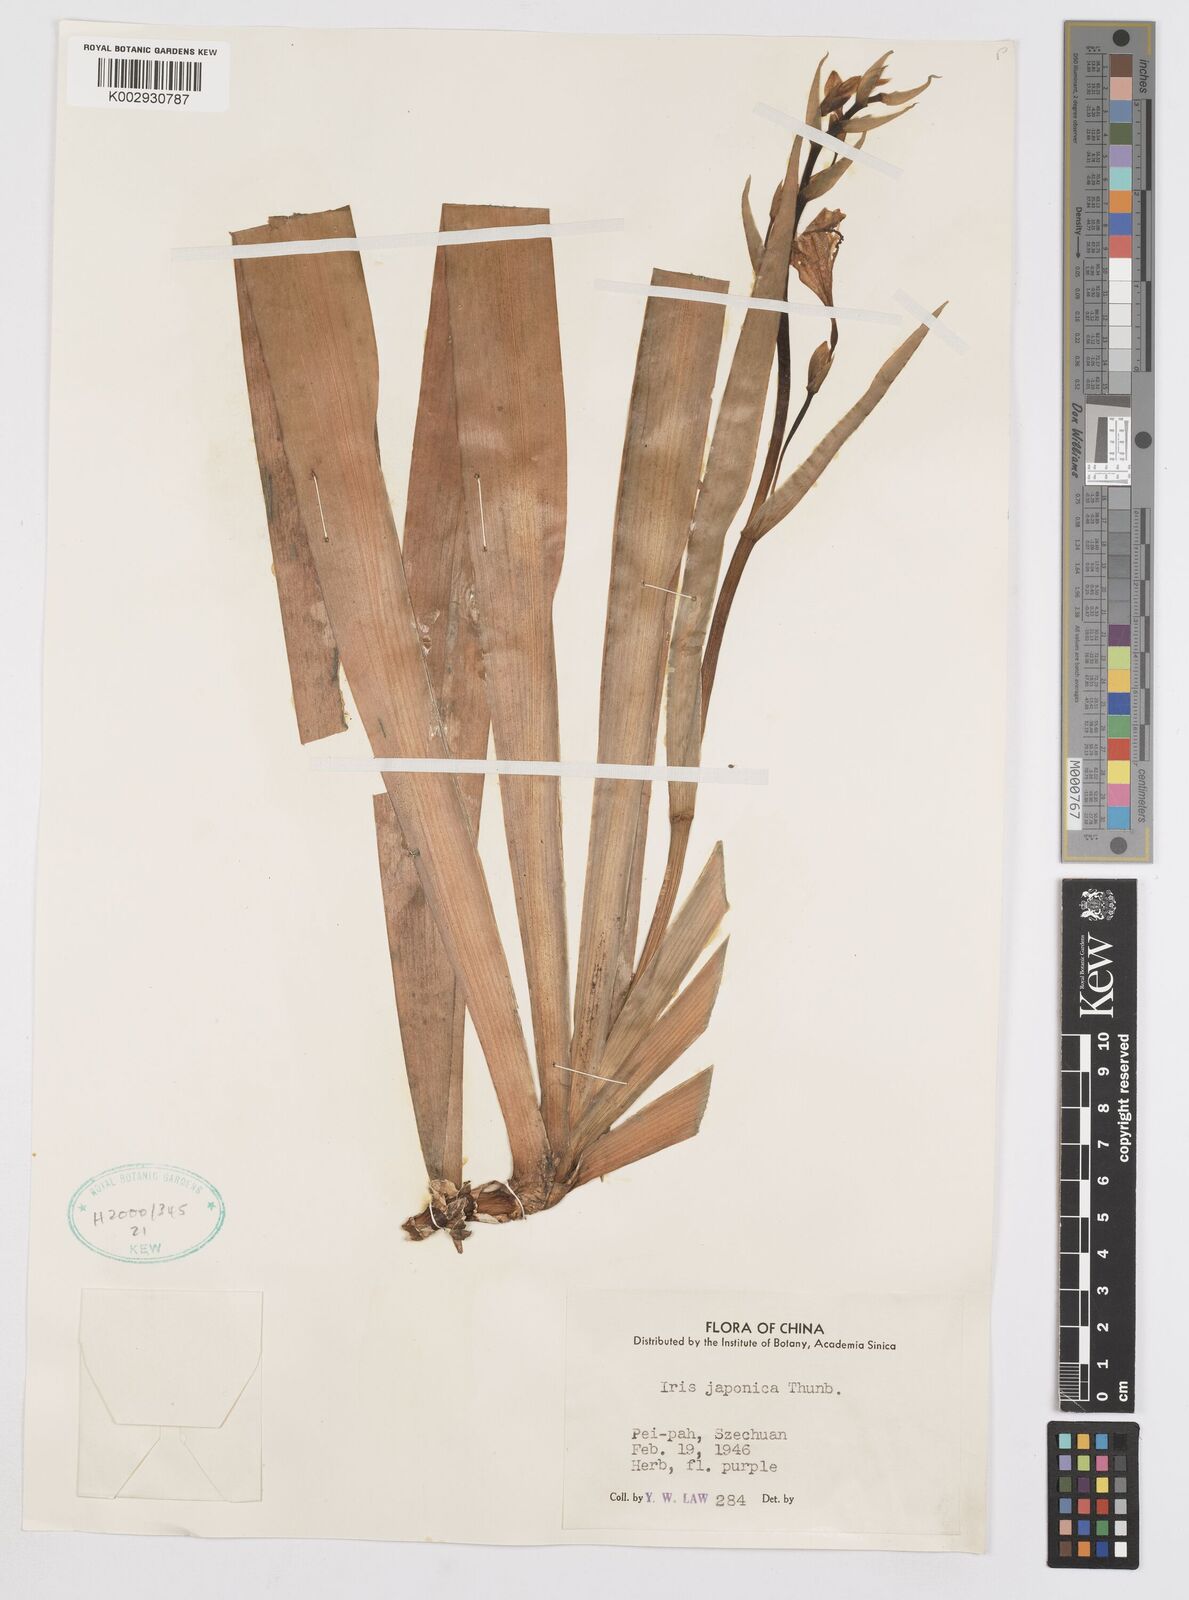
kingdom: Plantae
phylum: Tracheophyta
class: Liliopsida
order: Asparagales
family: Iridaceae
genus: Iris
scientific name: Iris japonica
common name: Butterfly-flower
